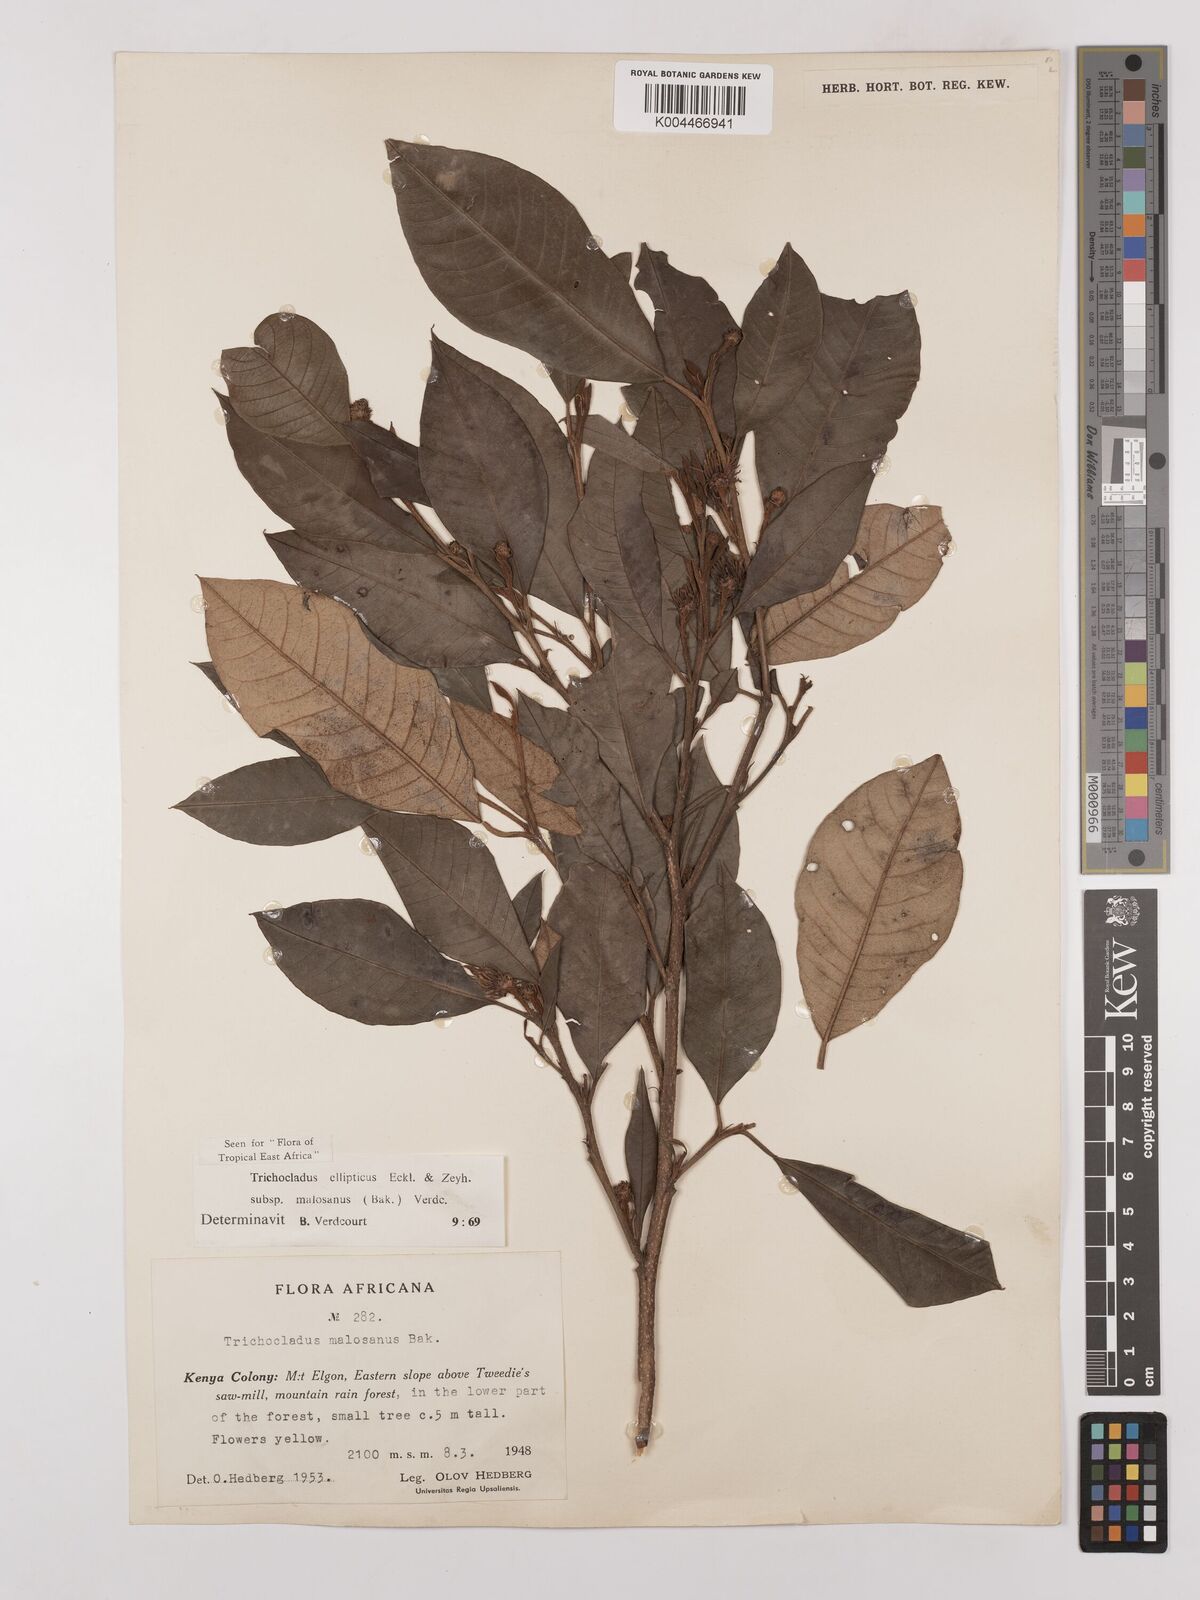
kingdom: Plantae
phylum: Tracheophyta
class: Magnoliopsida
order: Saxifragales
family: Hamamelidaceae
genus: Trichocladus
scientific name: Trichocladus ellipticus
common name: White witch-hazel
